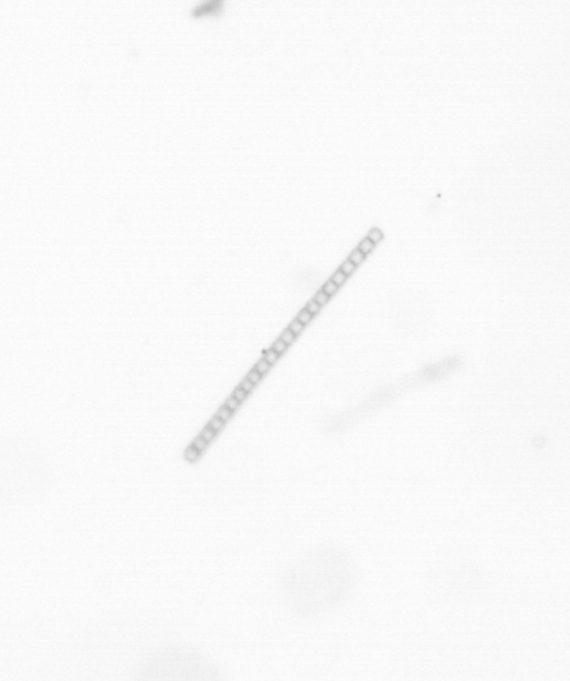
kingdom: Chromista
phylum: Ochrophyta
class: Bacillariophyceae
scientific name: Bacillariophyceae
